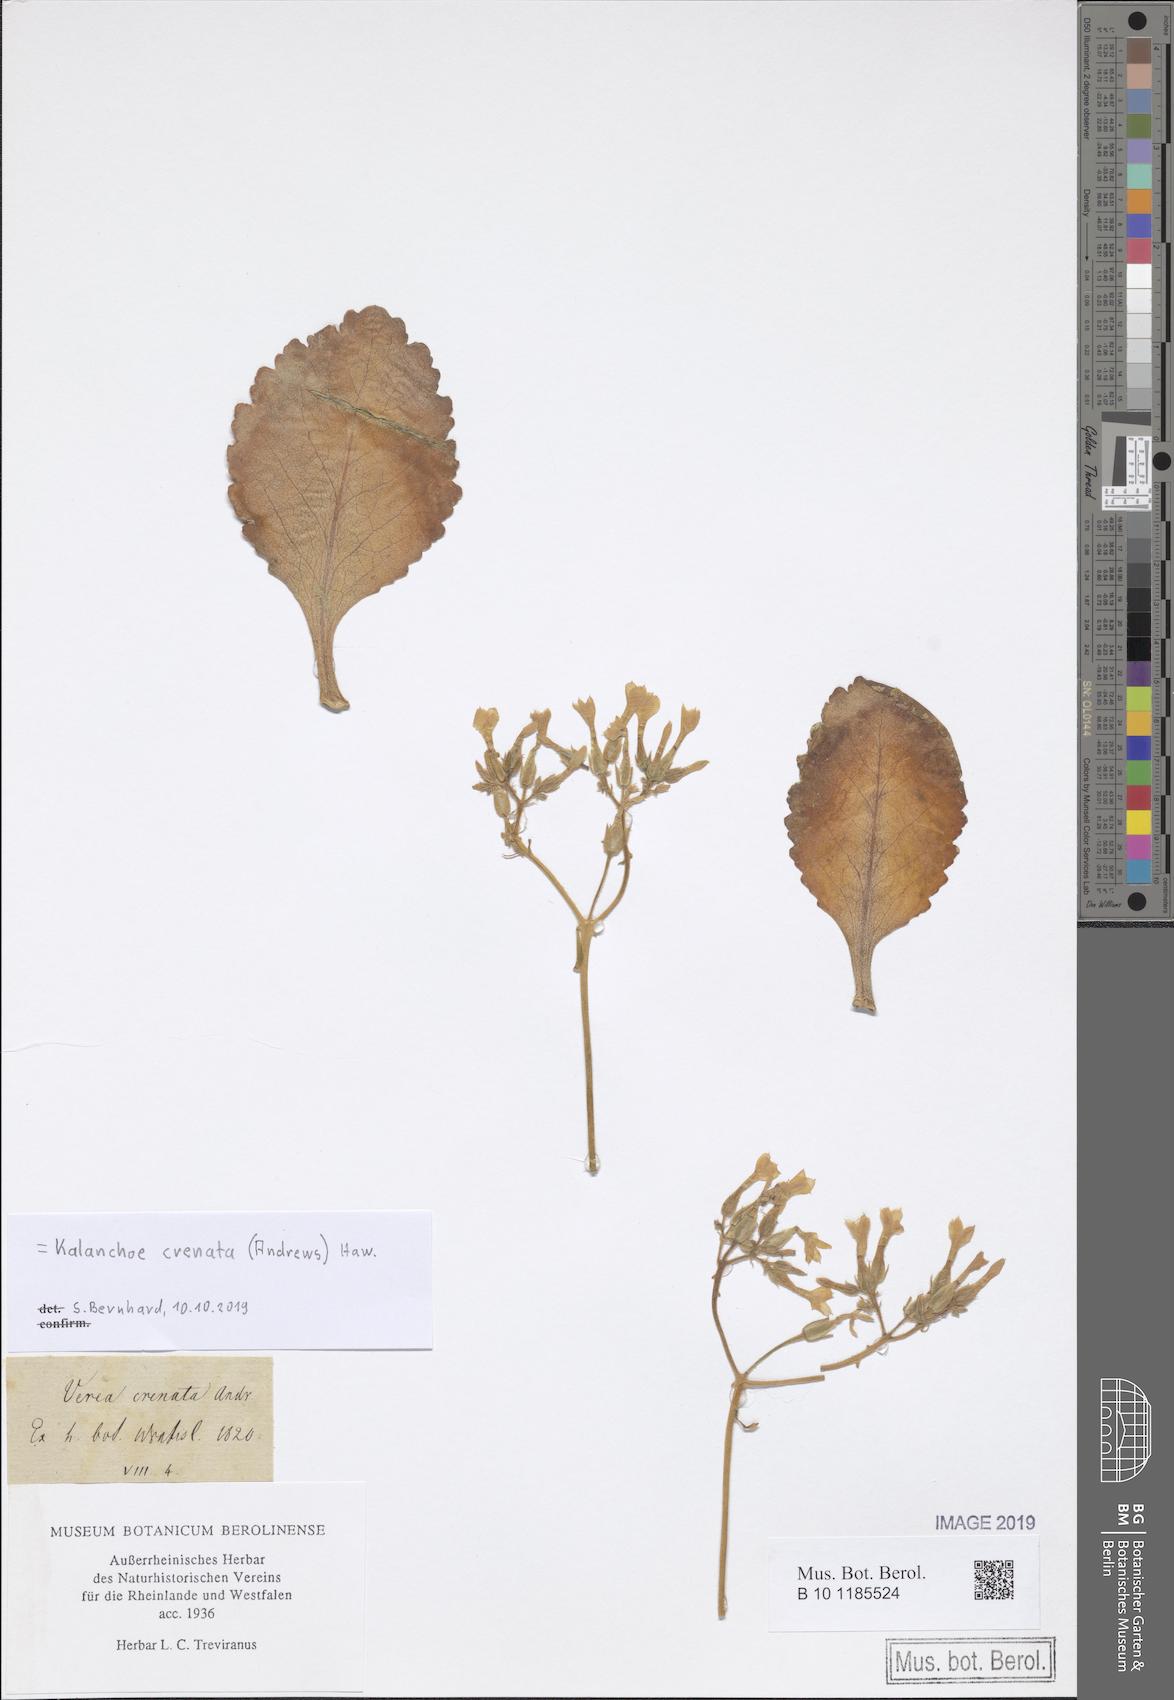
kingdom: Plantae
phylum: Tracheophyta
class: Magnoliopsida
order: Saxifragales
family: Crassulaceae
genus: Kalanchoe
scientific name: Kalanchoe crenata
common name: Neverdie
